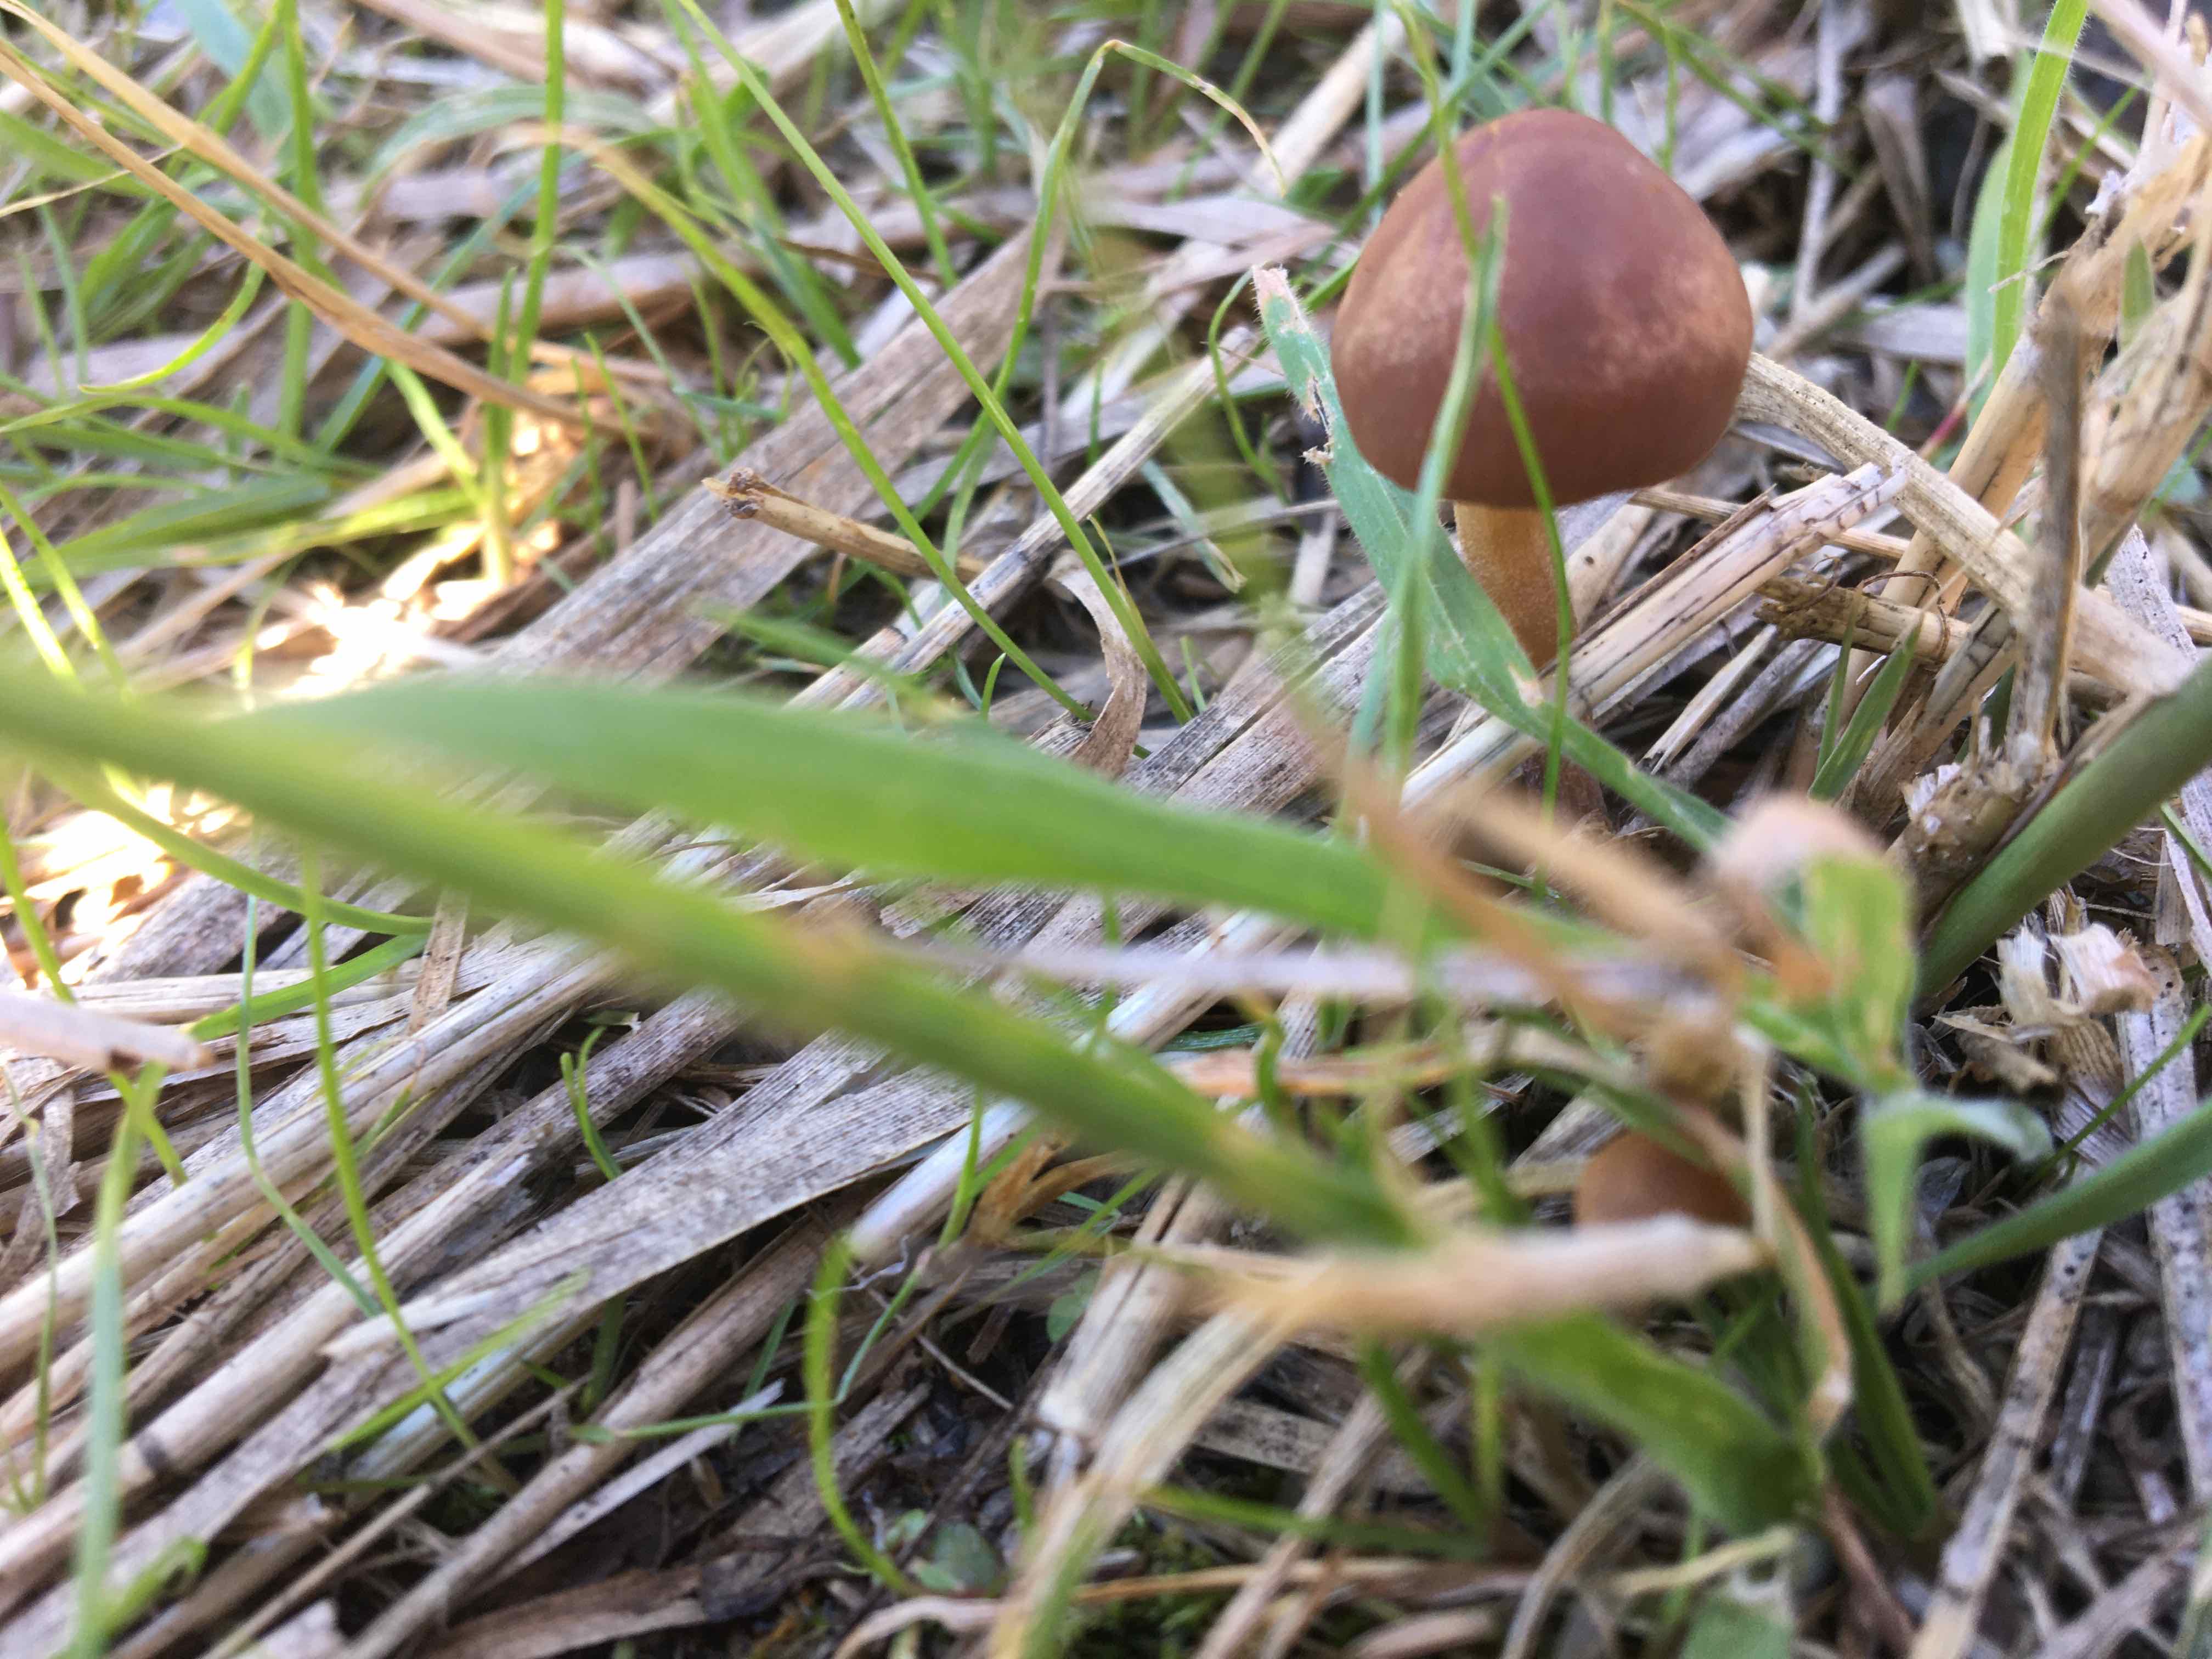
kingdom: Fungi
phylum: Basidiomycota
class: Agaricomycetes
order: Agaricales
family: Bolbitiaceae
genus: Panaeolina
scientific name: Panaeolina foenisecii
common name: høslætsvamp
